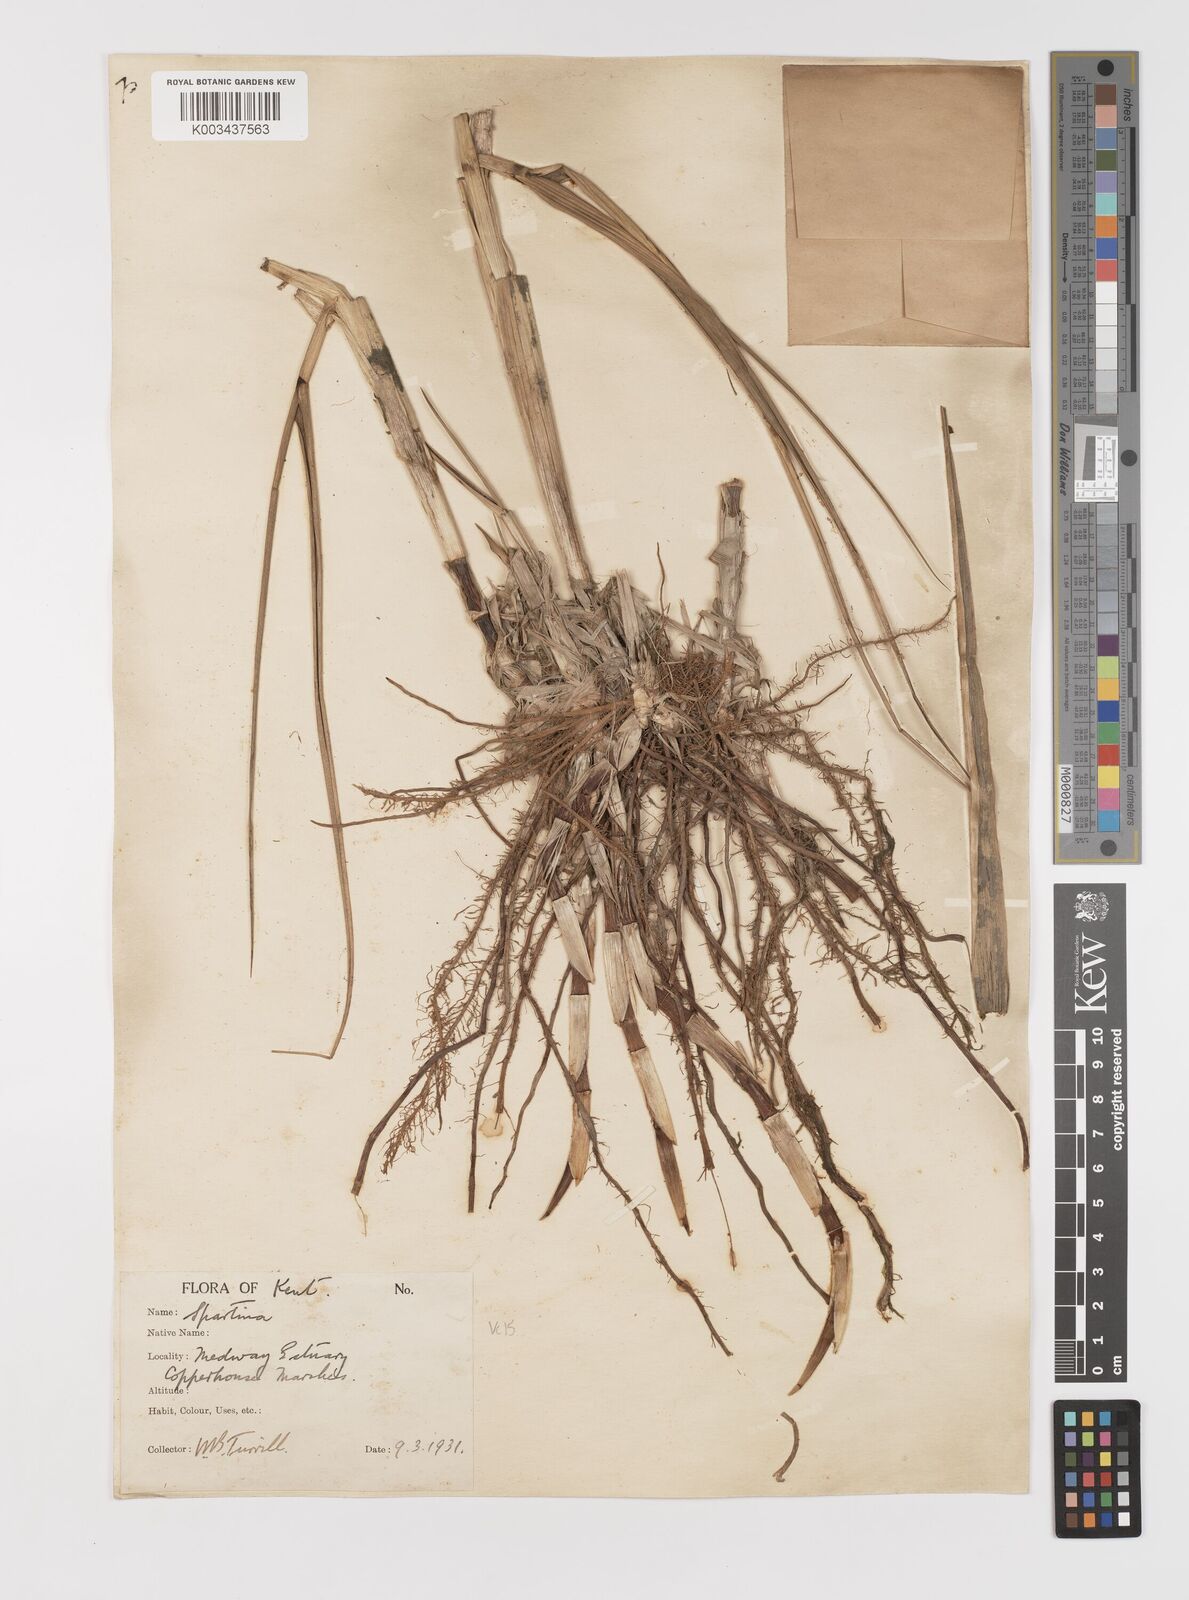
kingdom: Plantae
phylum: Tracheophyta
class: Liliopsida
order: Poales
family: Poaceae
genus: Sporobolus
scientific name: Sporobolus anglicus
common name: English cordgrass
